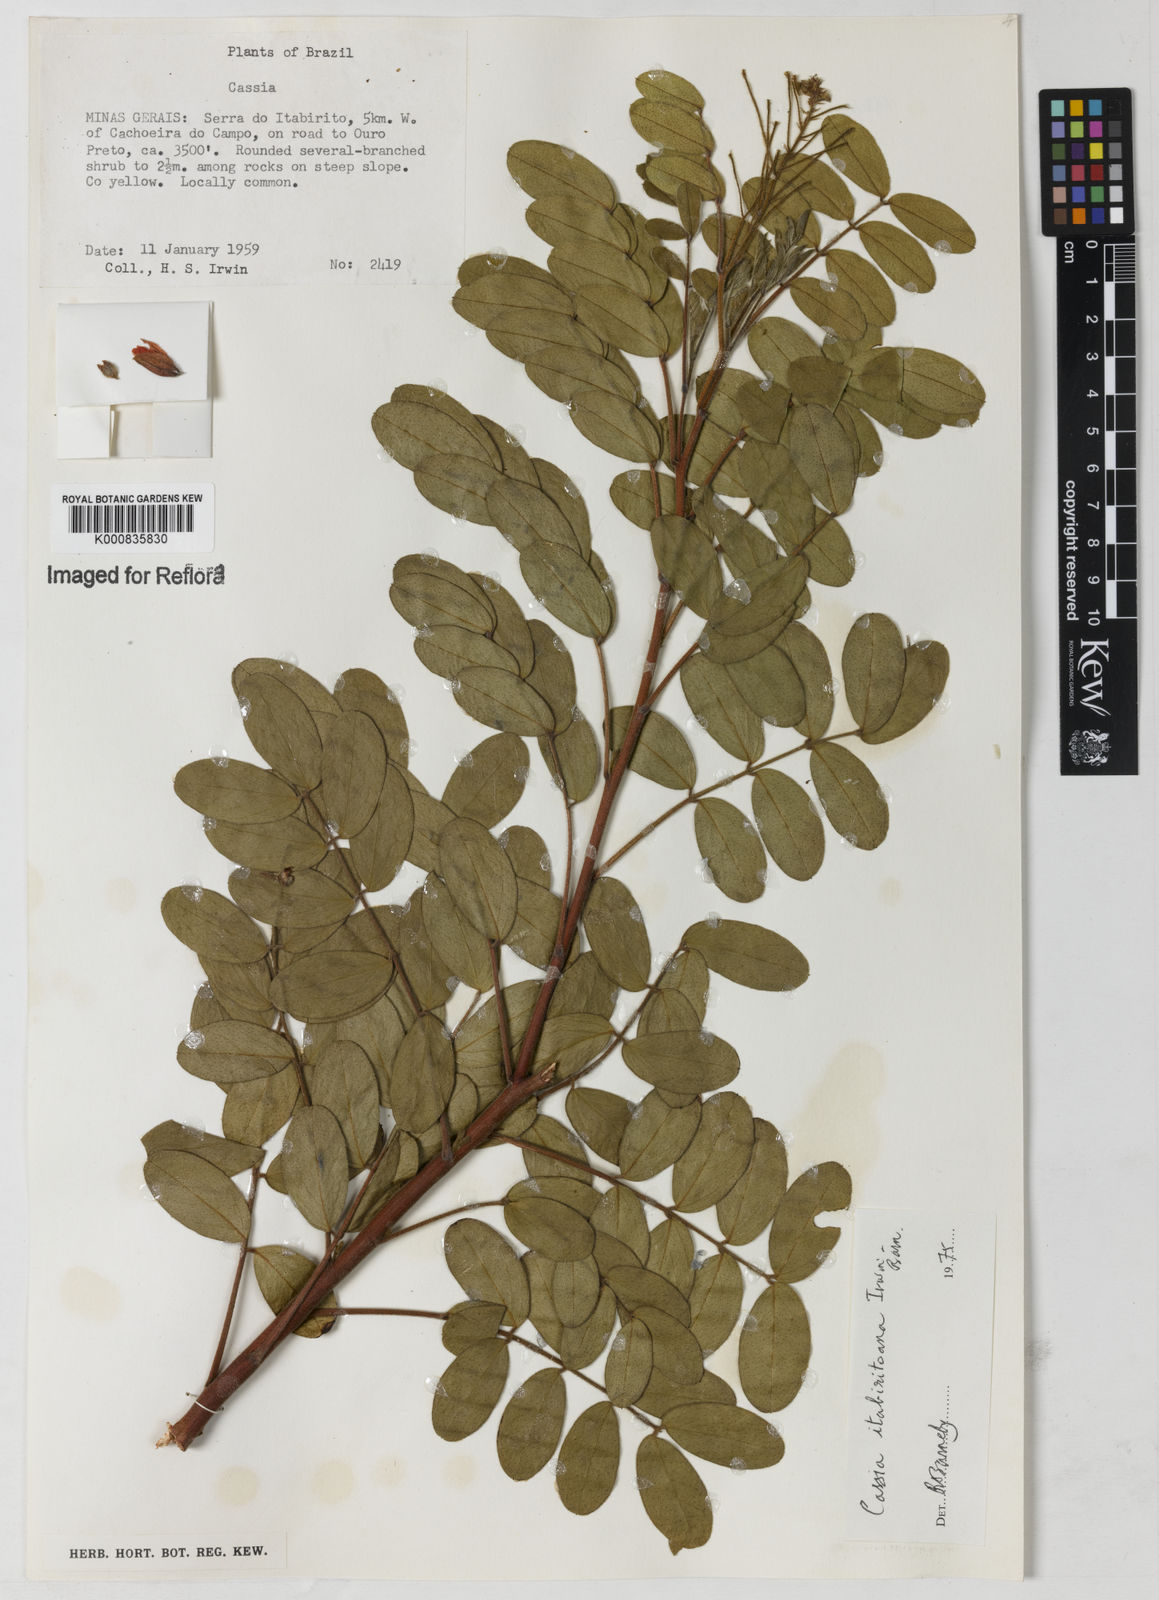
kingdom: Plantae
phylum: Tracheophyta
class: Magnoliopsida
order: Fabales
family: Fabaceae
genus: Chamaecrista
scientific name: Chamaecrista itabiritoana
